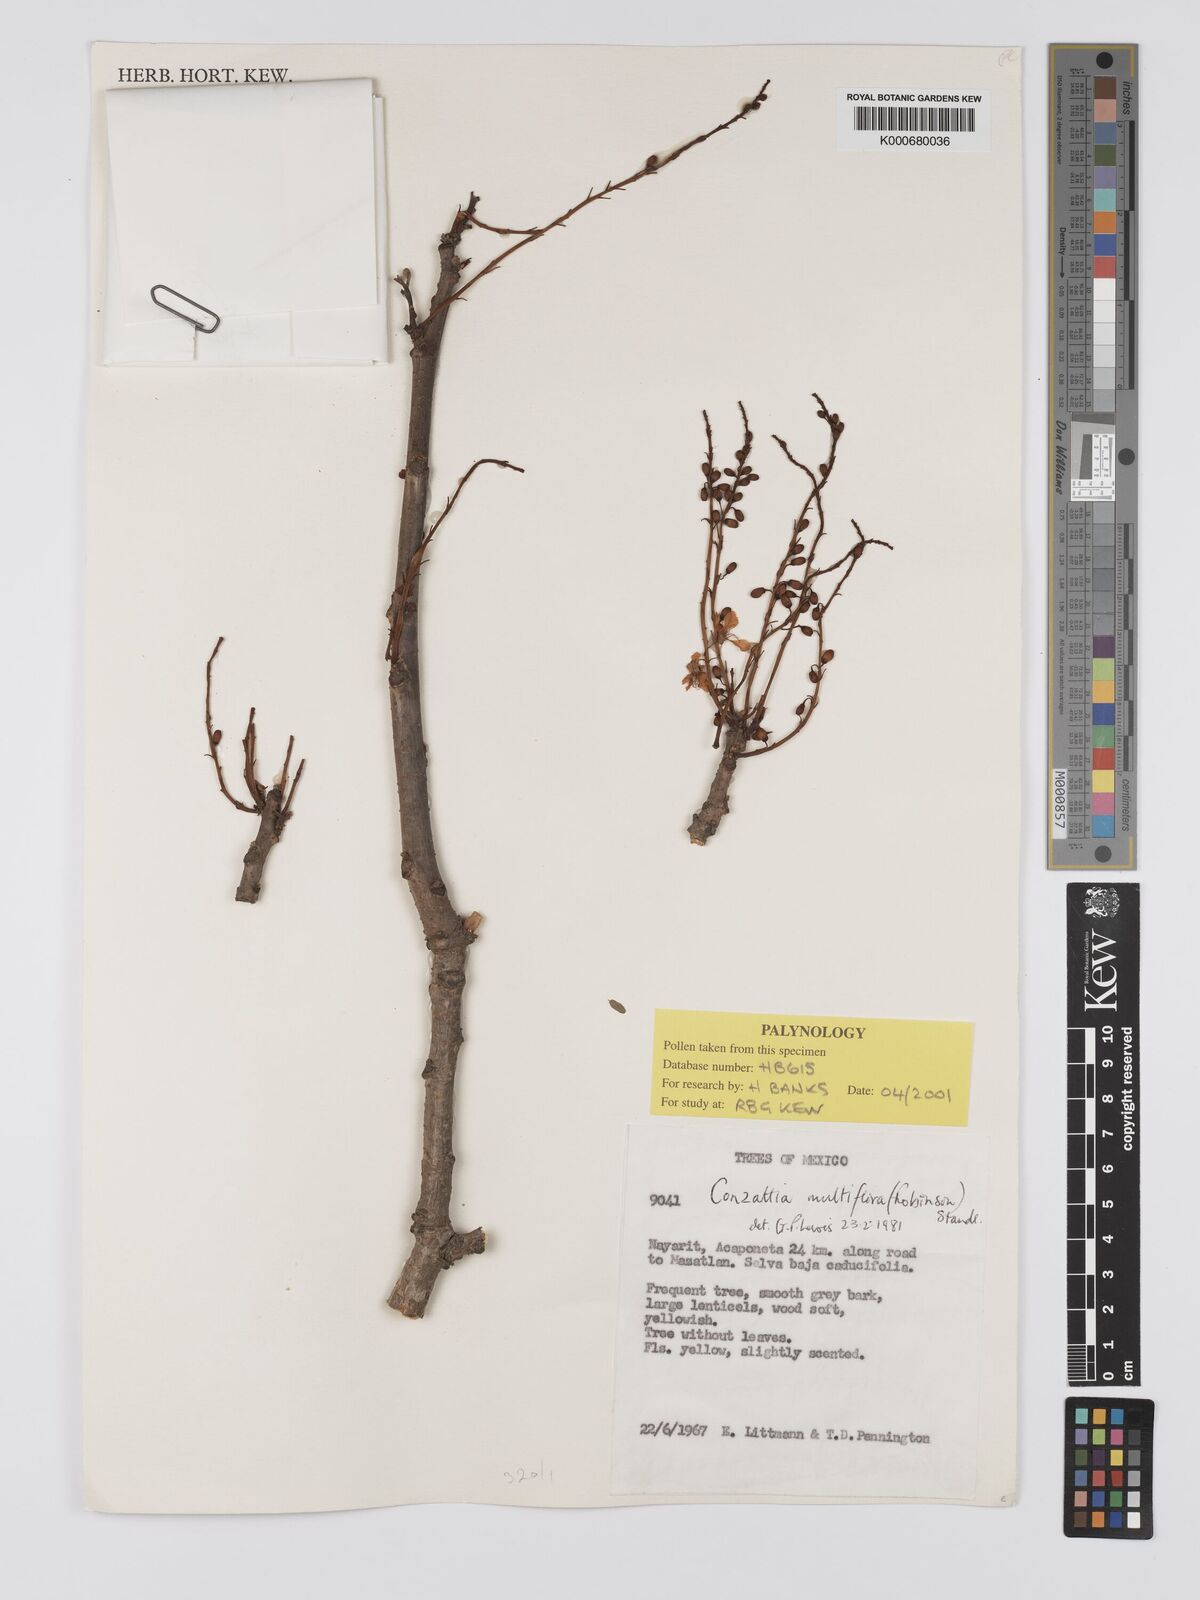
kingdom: Plantae
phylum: Tracheophyta
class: Magnoliopsida
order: Fabales
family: Fabaceae
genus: Conzattia
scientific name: Conzattia multiflora
